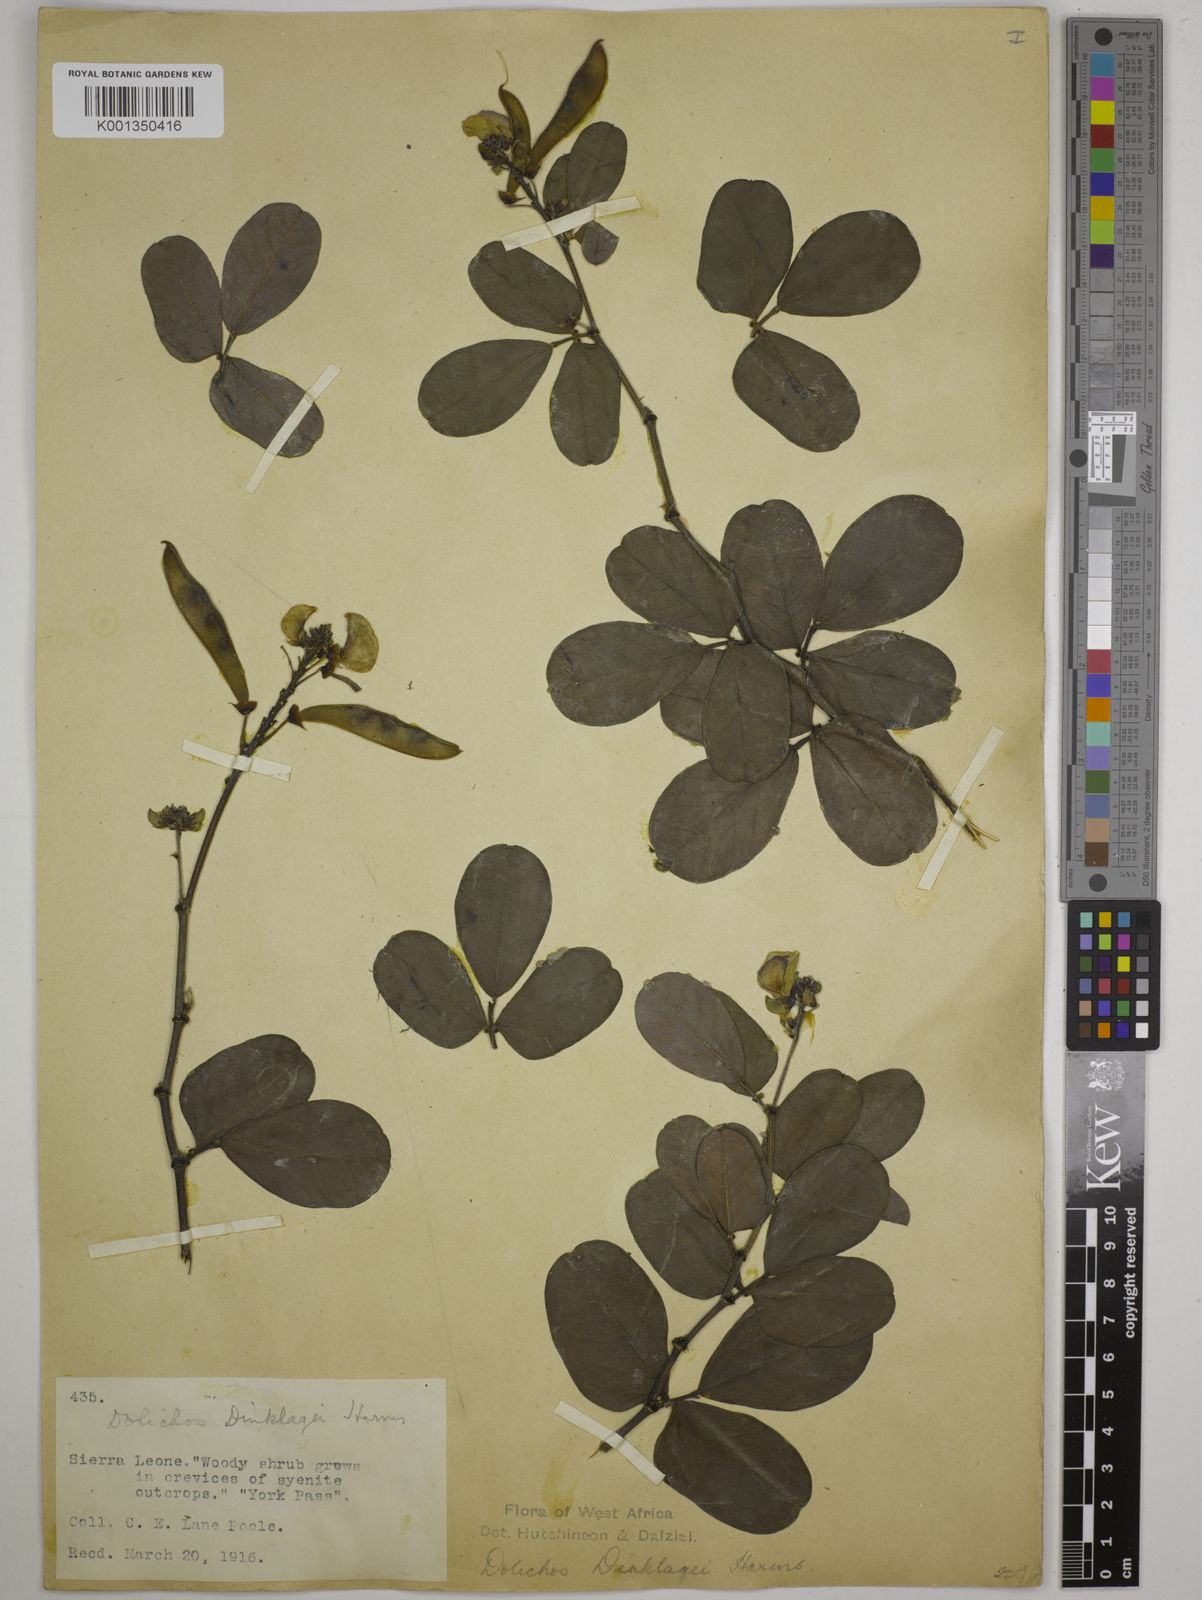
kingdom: Plantae
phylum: Tracheophyta
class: Magnoliopsida
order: Fabales
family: Fabaceae
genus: Dolichos
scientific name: Dolichos dinklagei
